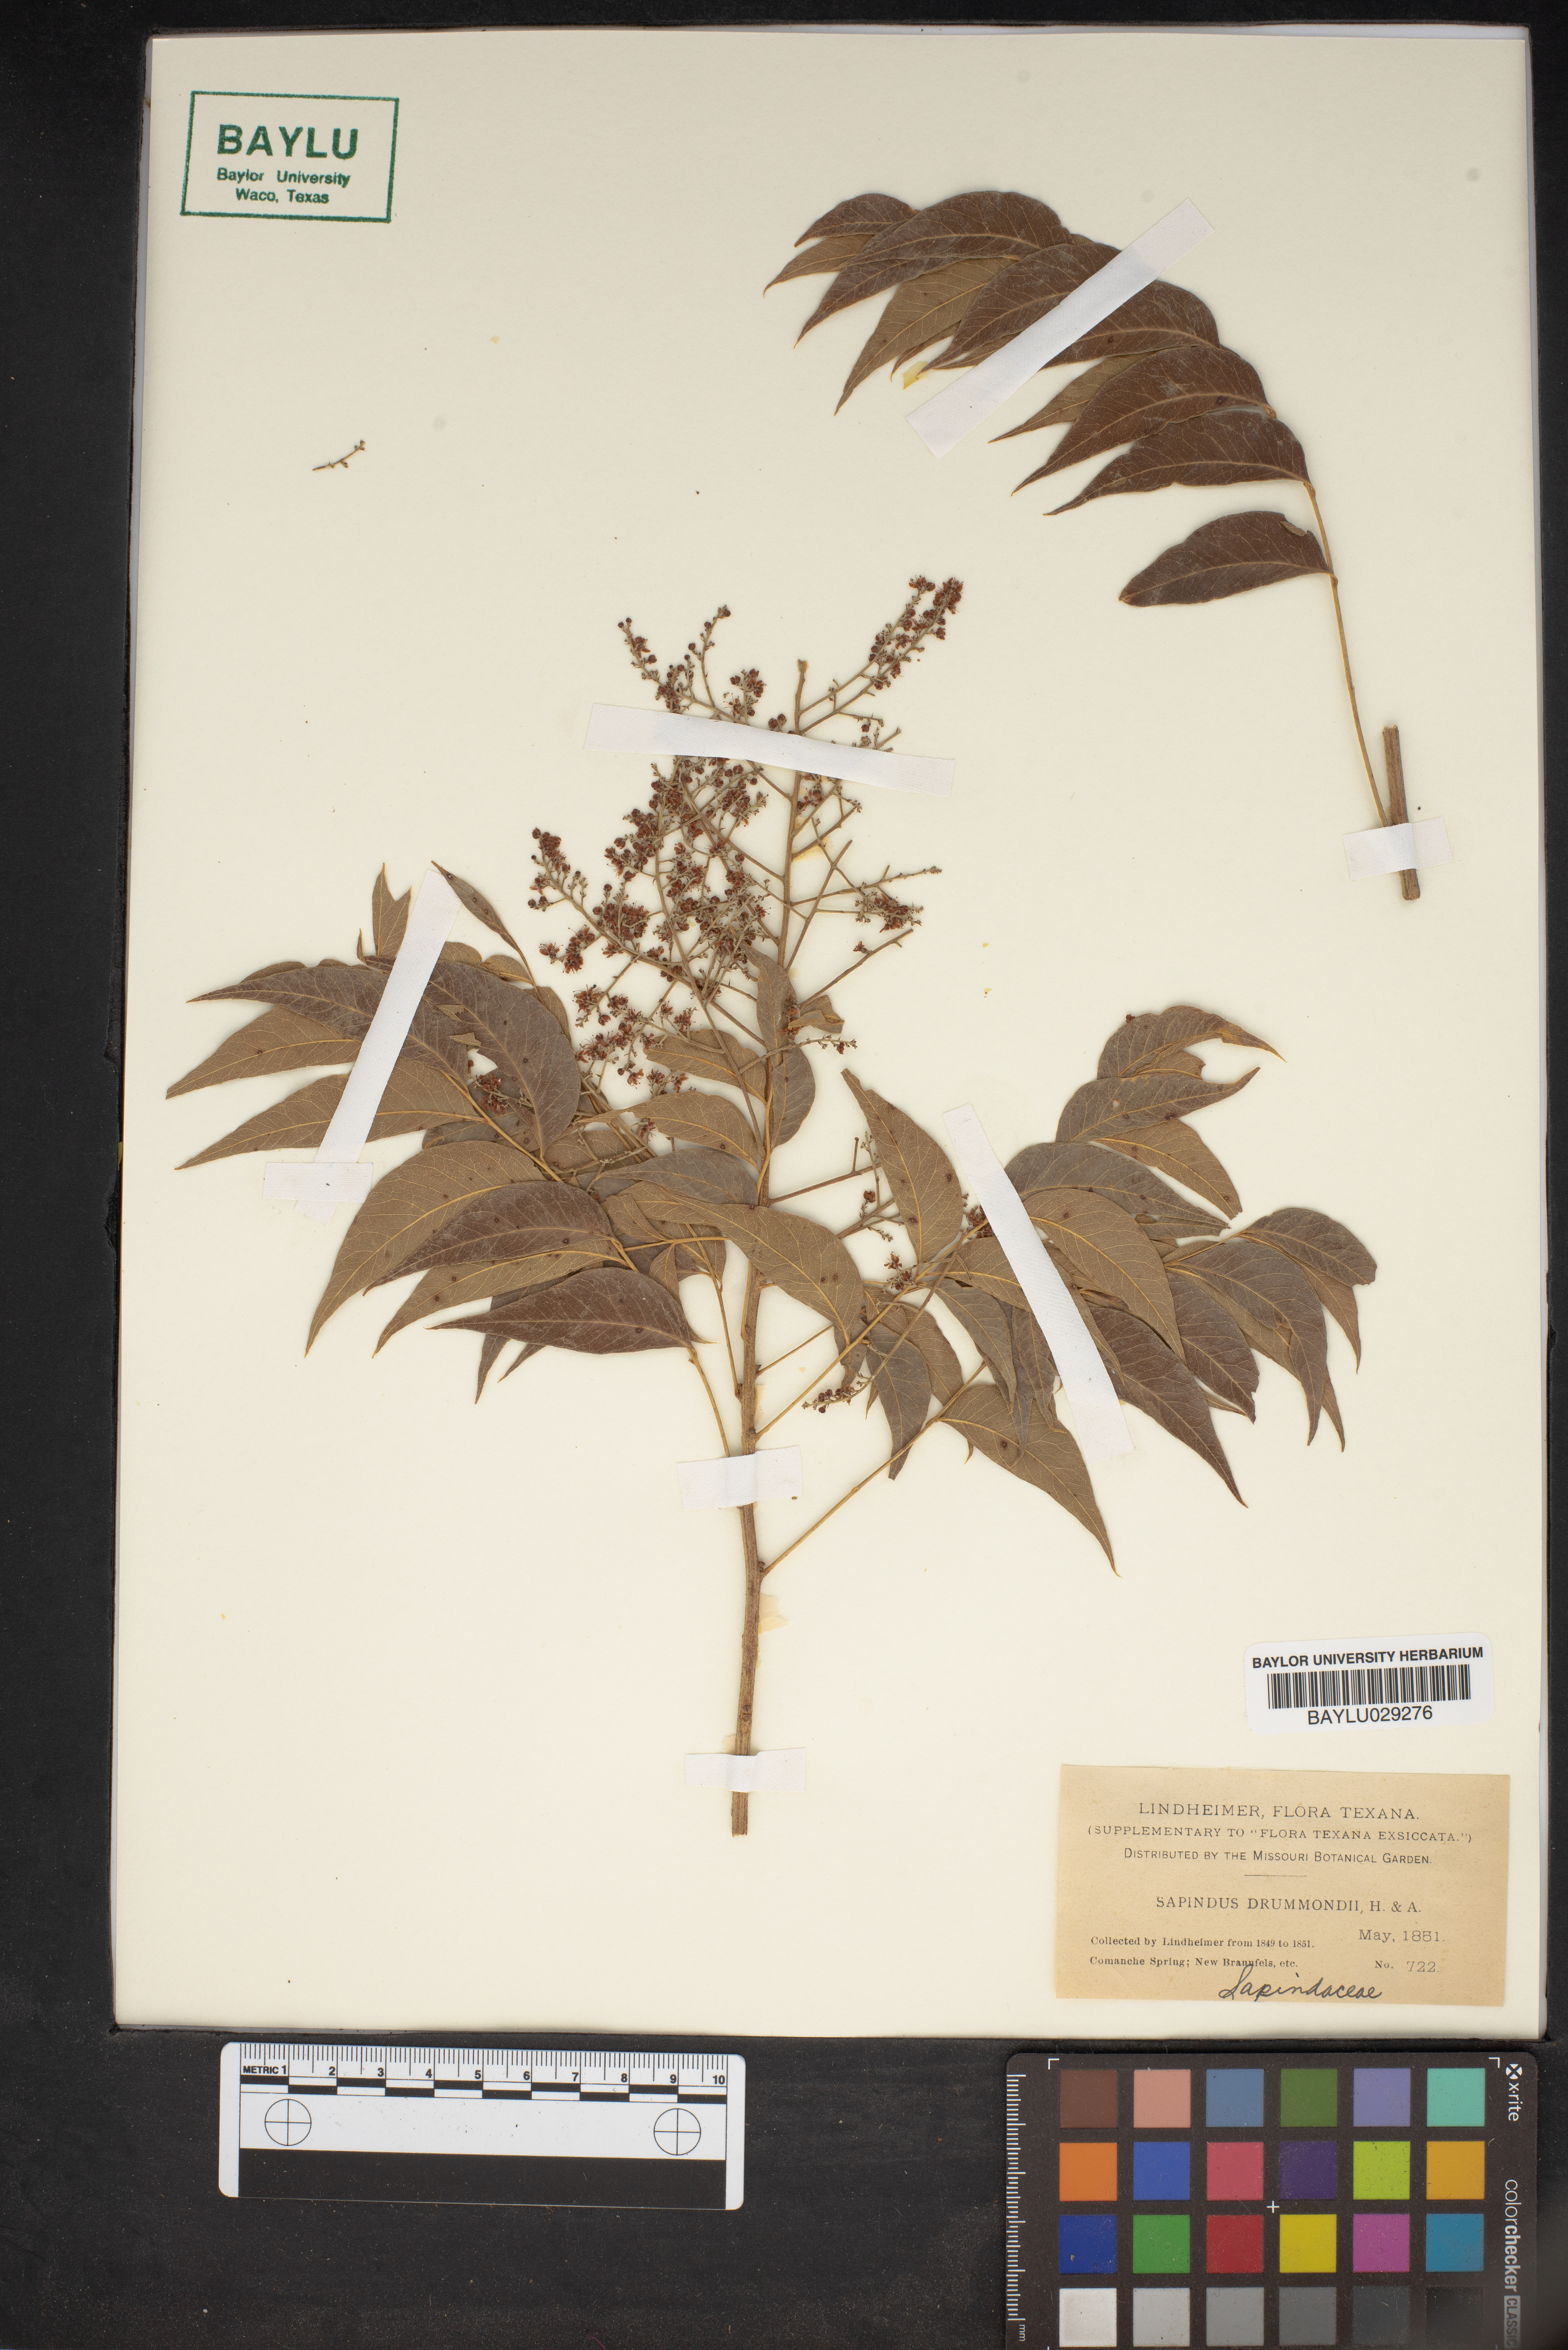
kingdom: Plantae
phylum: Tracheophyta
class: Magnoliopsida
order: Sapindales
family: Sapindaceae
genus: Sapindus
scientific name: Sapindus drummondii
